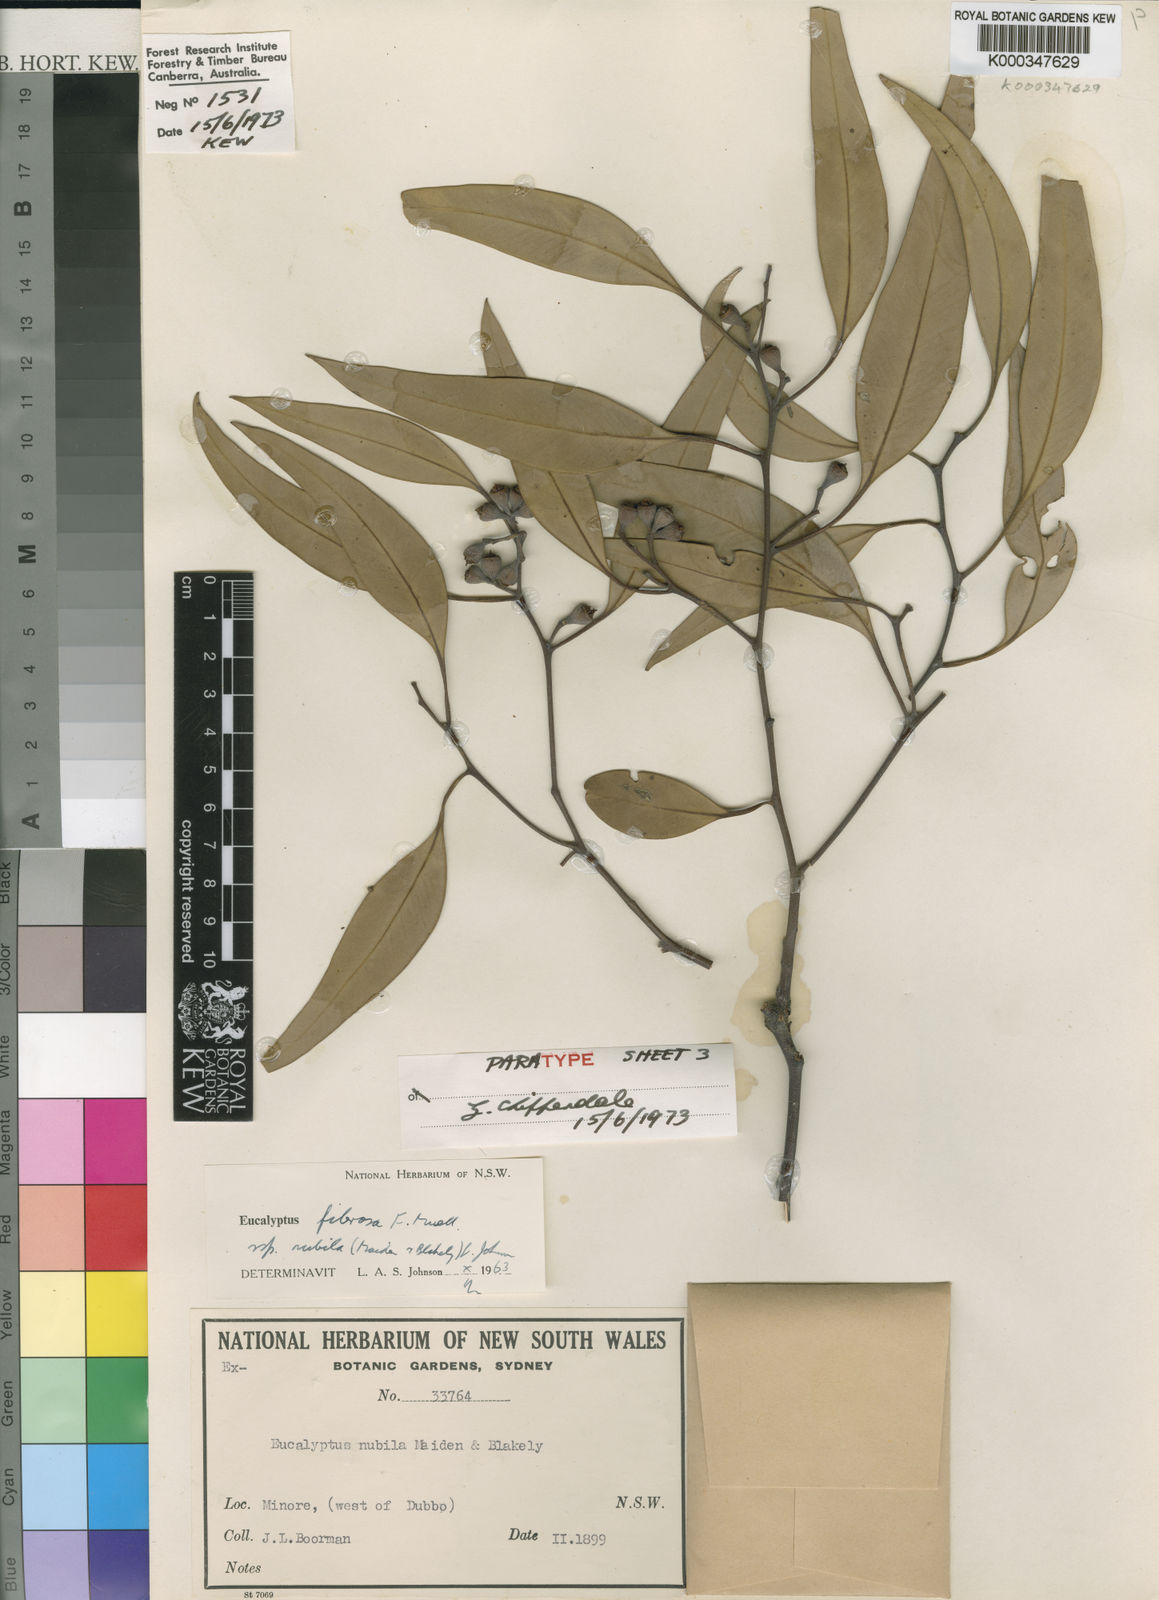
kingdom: Plantae
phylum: Tracheophyta
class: Magnoliopsida
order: Myrtales
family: Myrtaceae
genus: Eucalyptus
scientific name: Eucalyptus fibrosa
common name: Red ironbark
